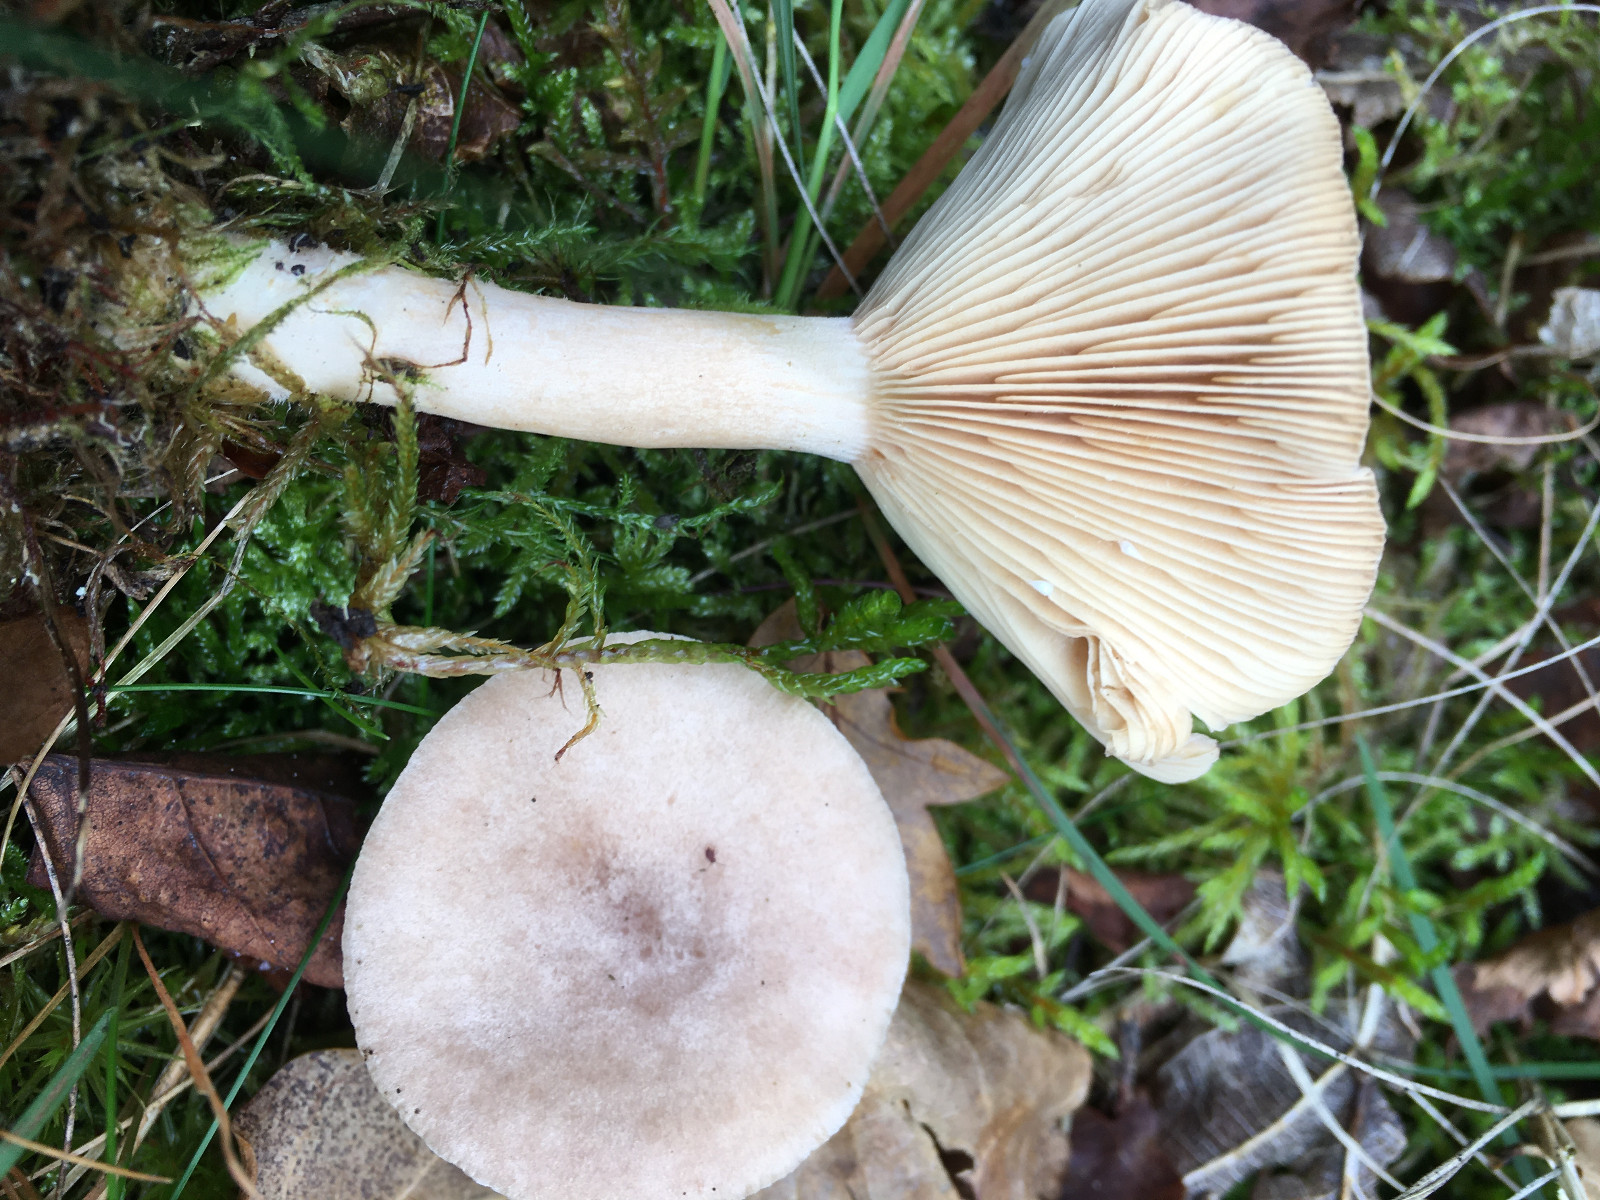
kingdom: Fungi
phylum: Basidiomycota
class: Agaricomycetes
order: Russulales
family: Russulaceae
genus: Lactarius
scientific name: Lactarius glyciosmus
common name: kokos-mælkehat
